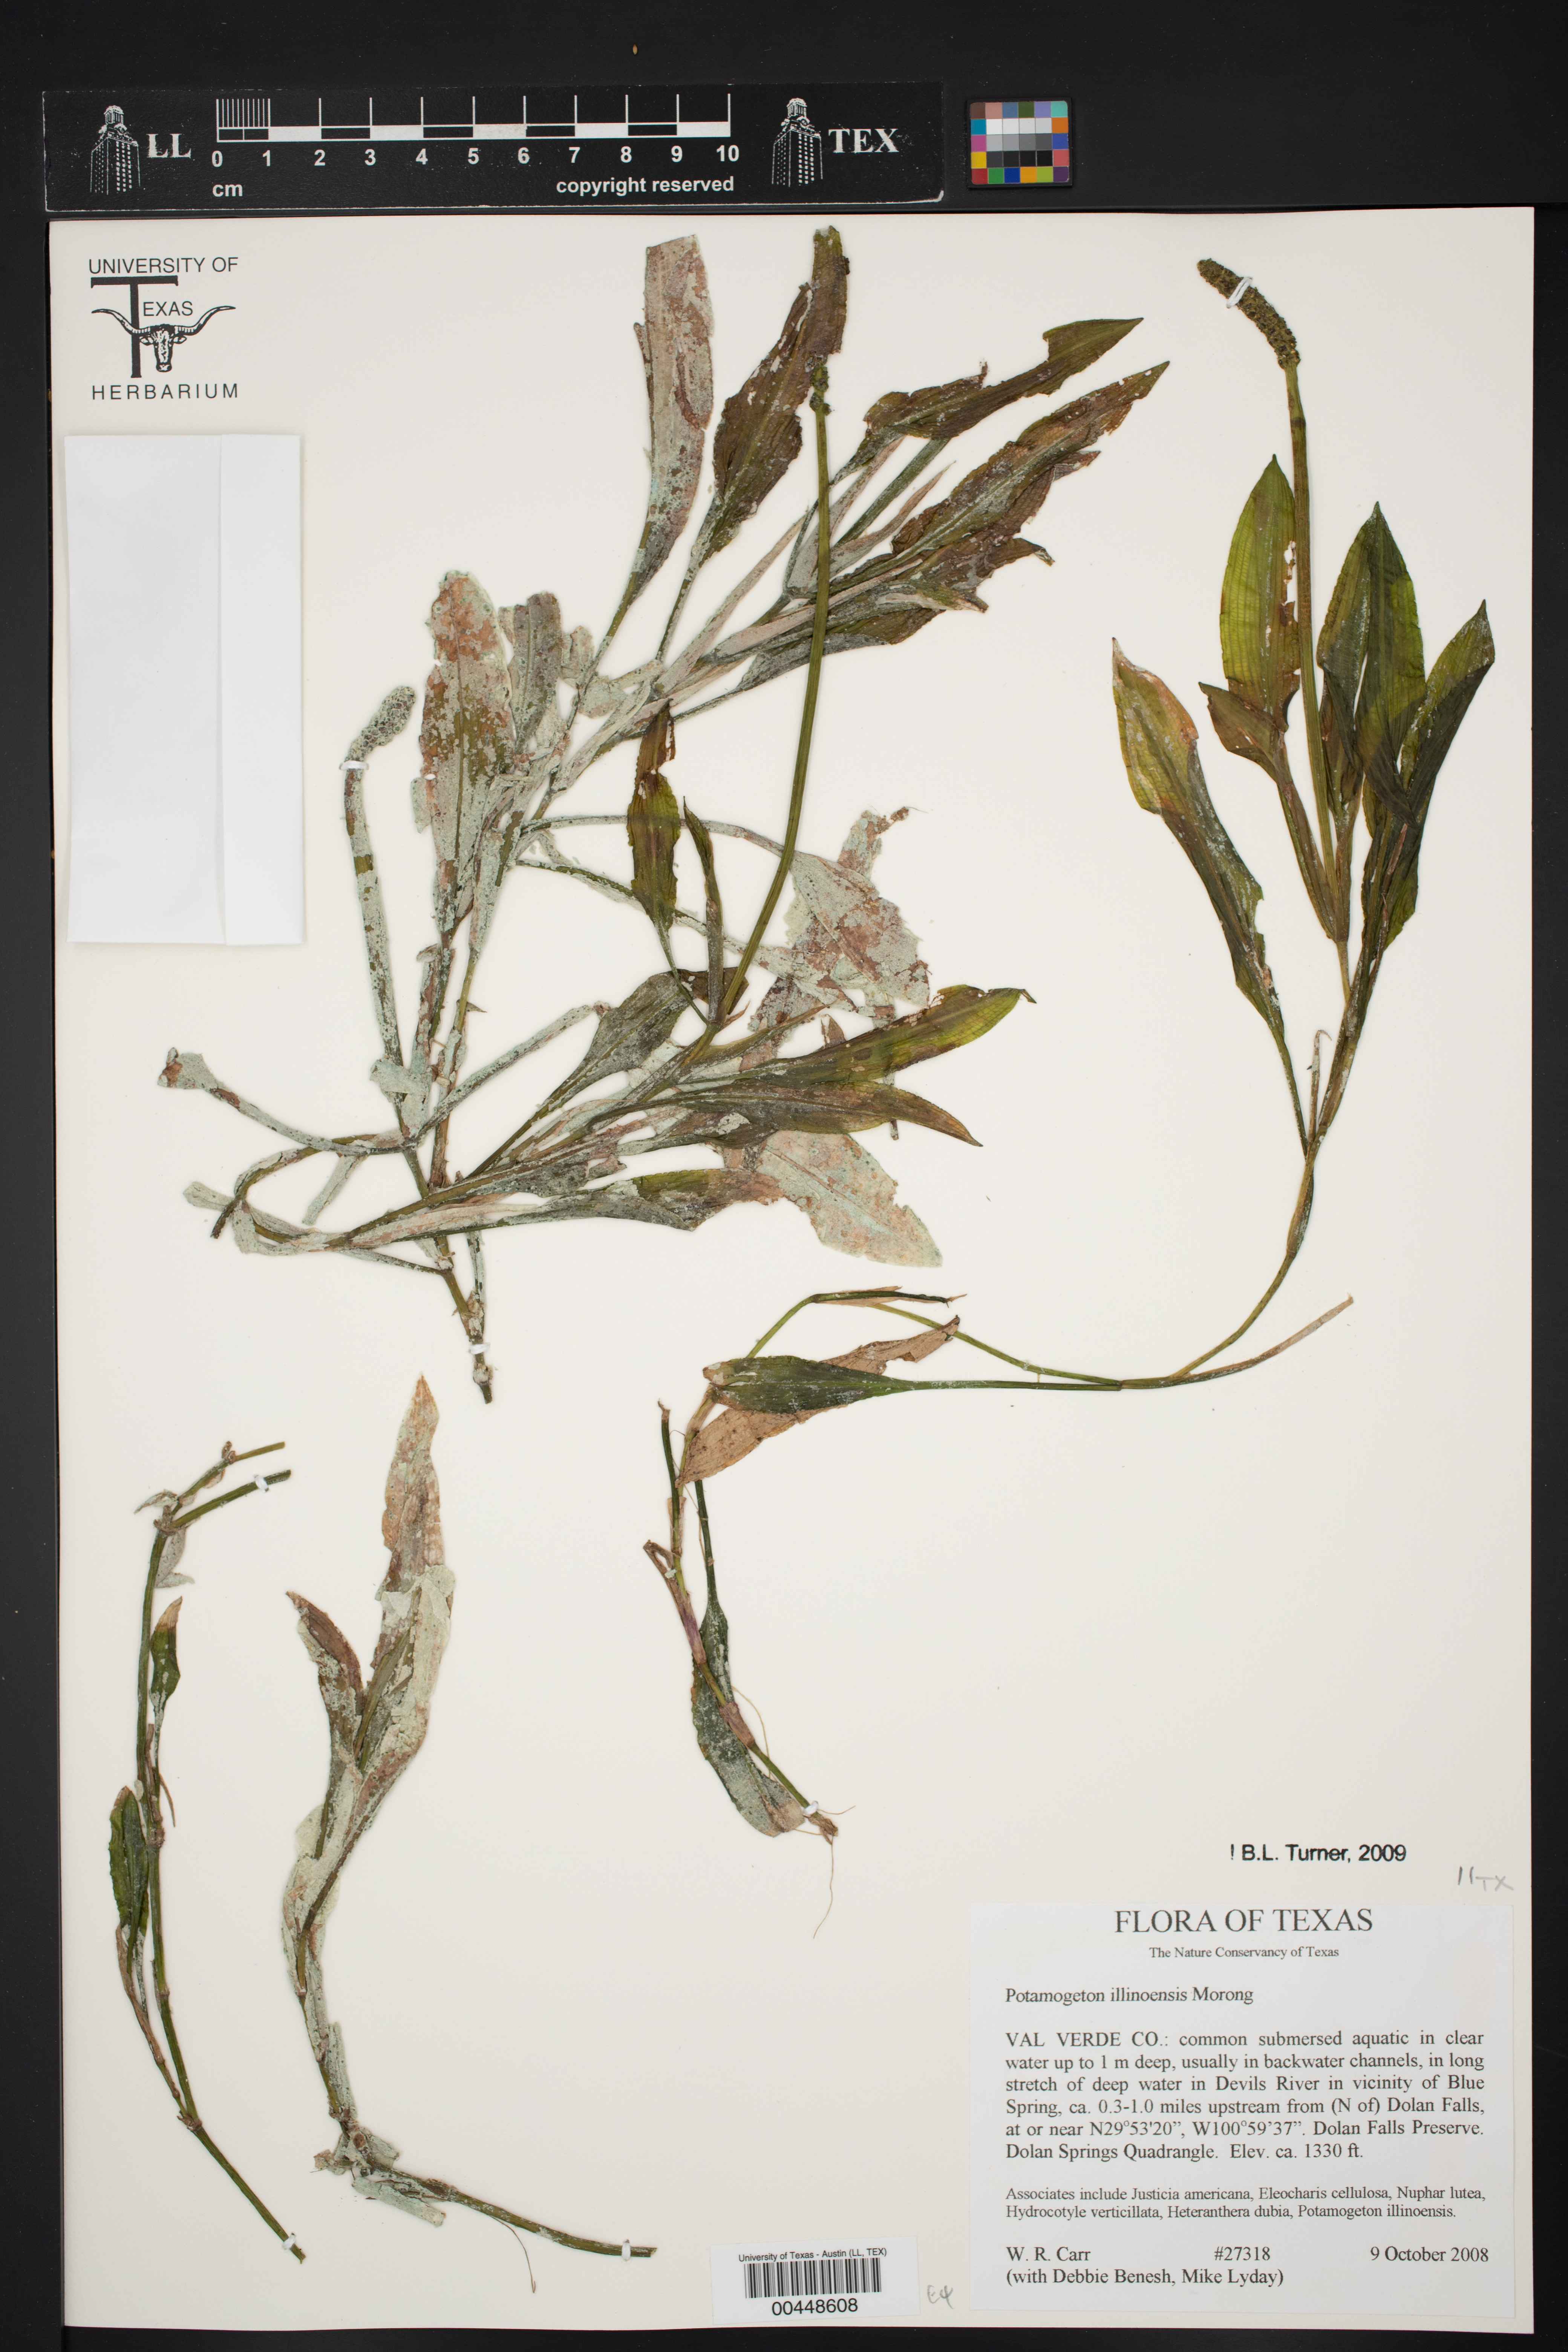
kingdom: Plantae
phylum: Tracheophyta
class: Liliopsida
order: Alismatales
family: Potamogetonaceae
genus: Potamogeton
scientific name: Potamogeton illinoensis
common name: Illinois pondweed
